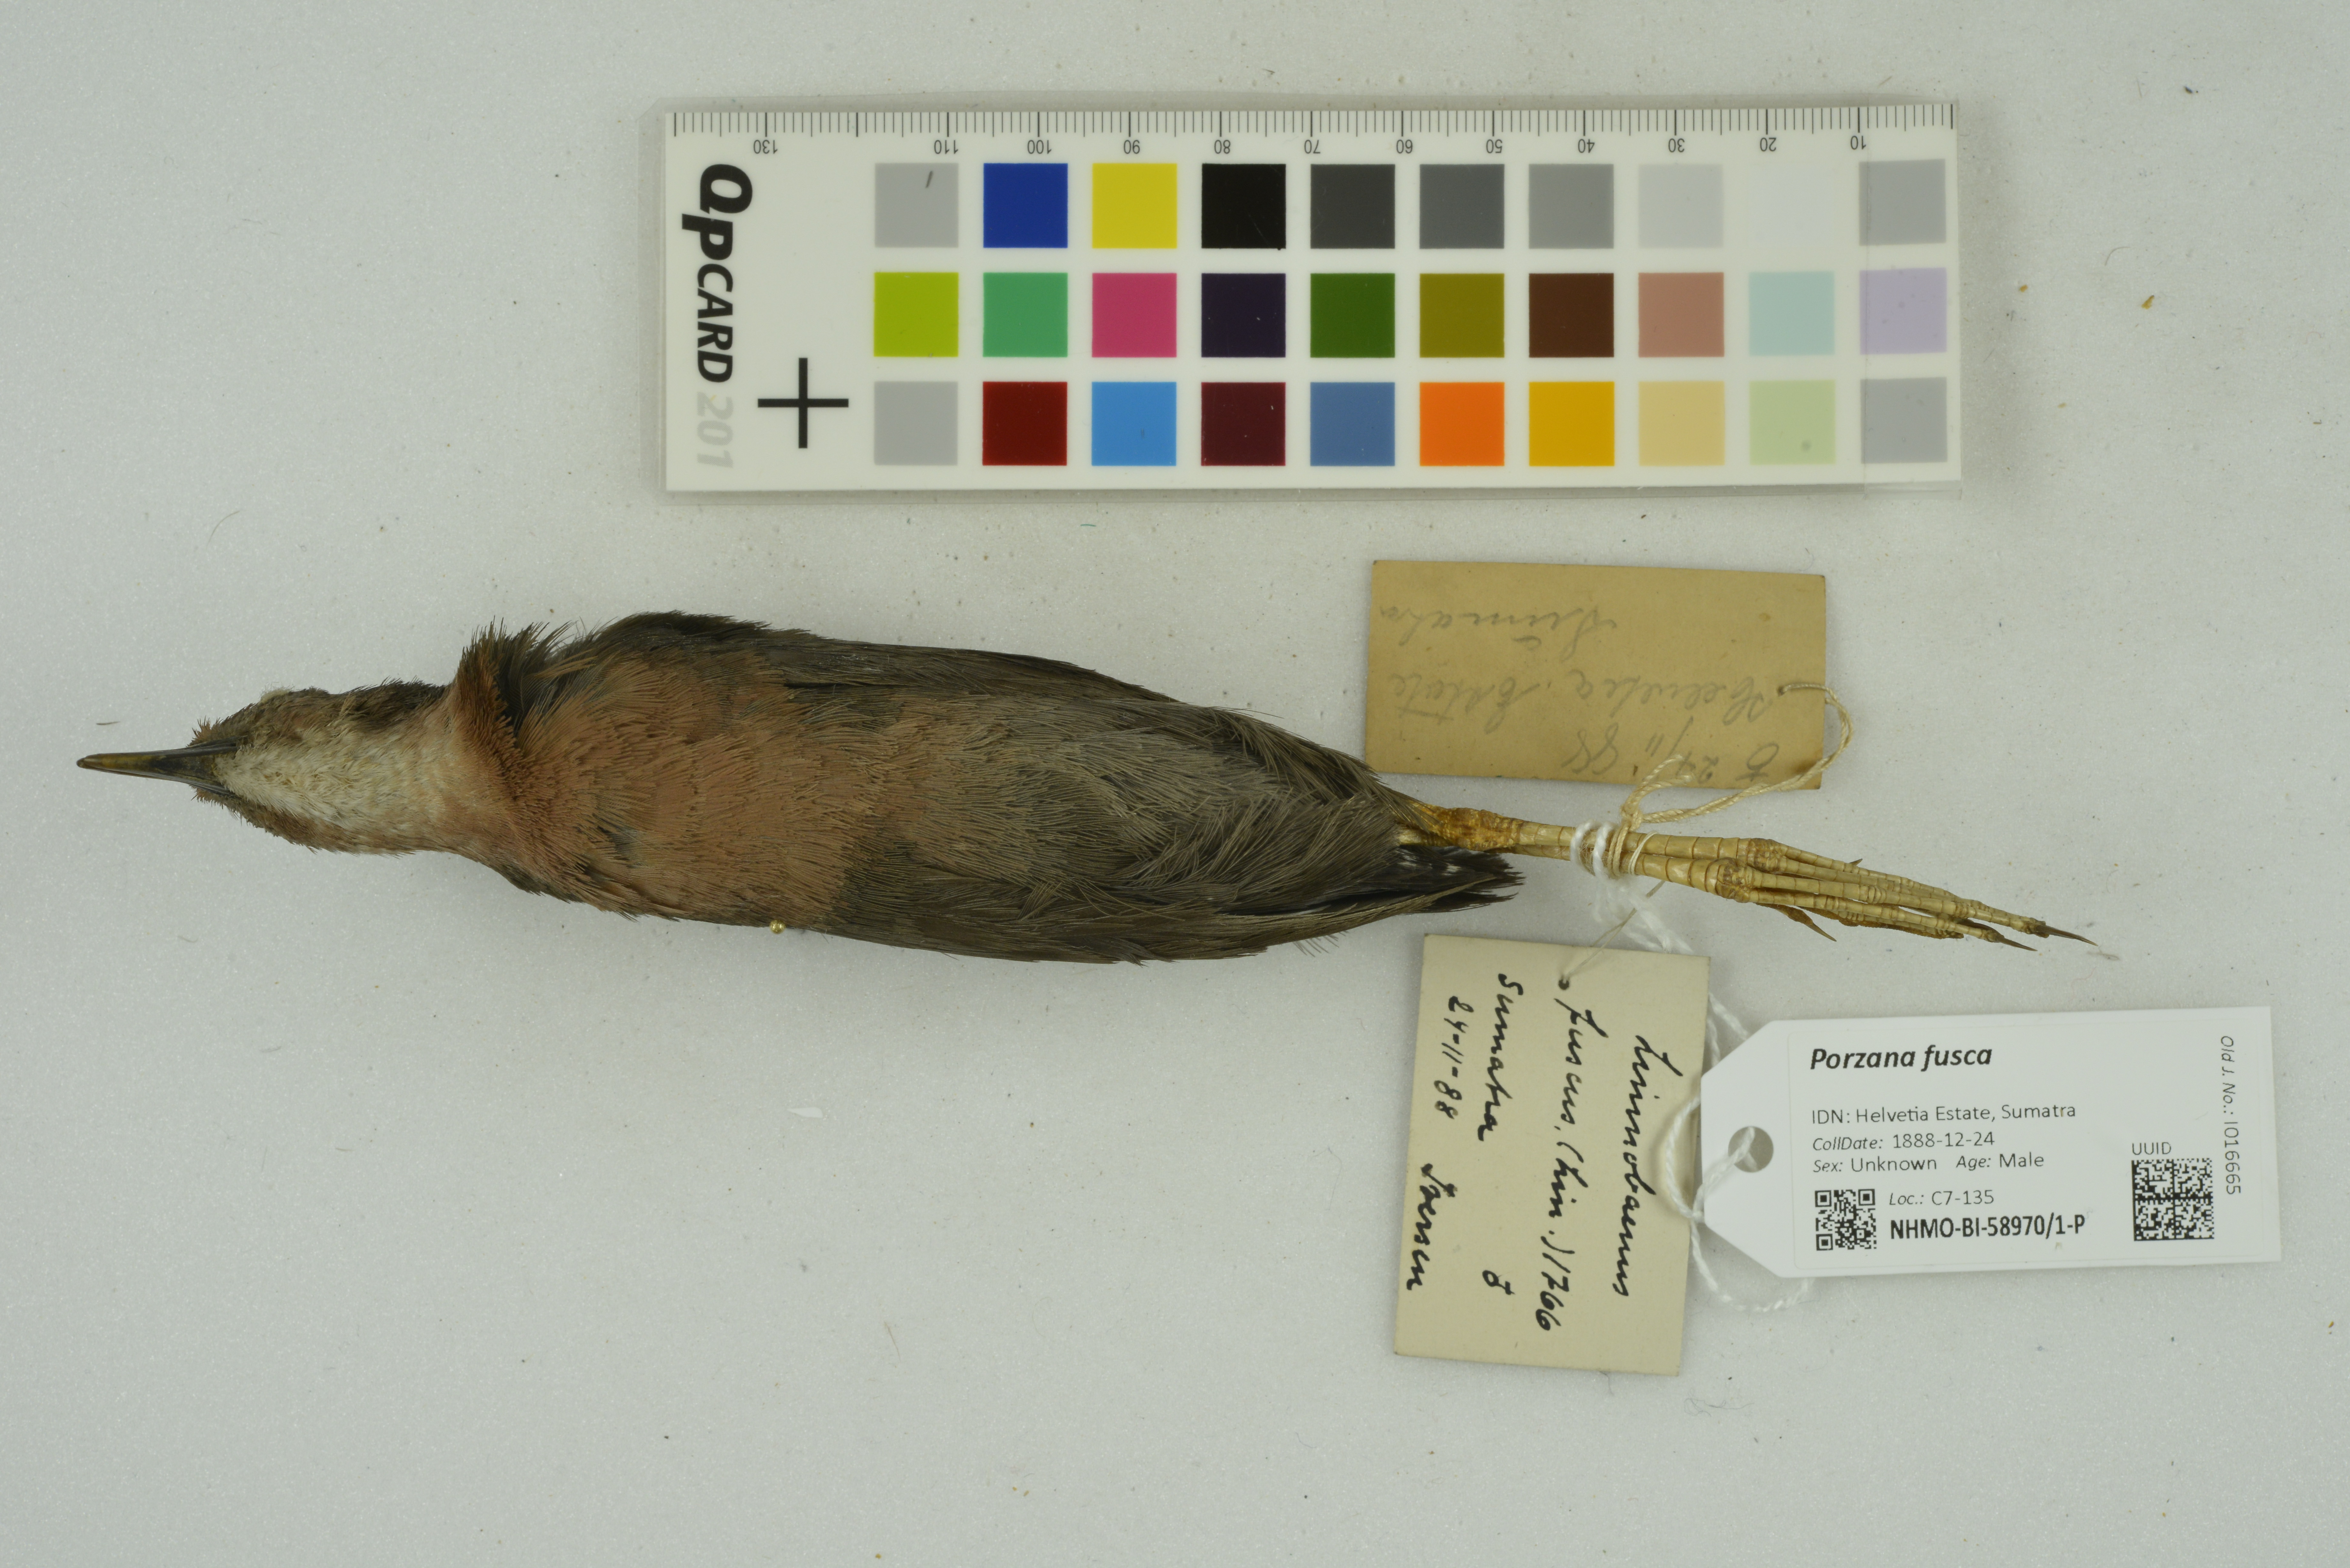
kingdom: Animalia
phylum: Chordata
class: Aves
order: Gruiformes
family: Rallidae
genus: Porzana
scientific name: Porzana fusca
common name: Ruddy-breasted crake
